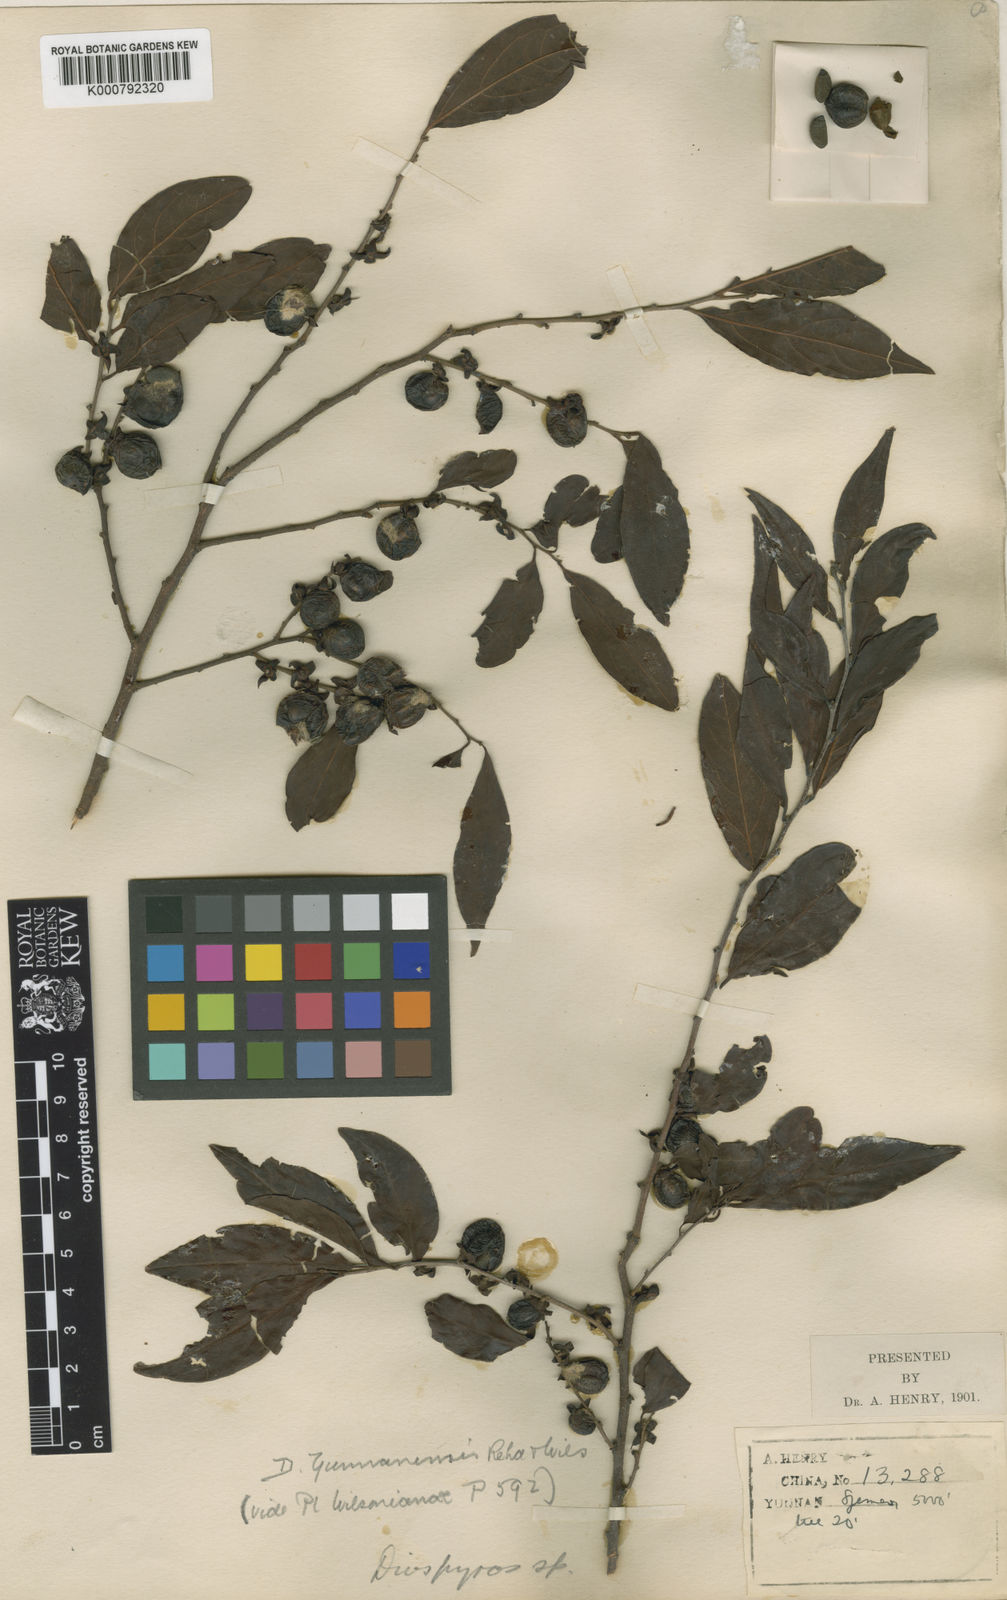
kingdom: Plantae
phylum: Tracheophyta
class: Magnoliopsida
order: Ericales
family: Ebenaceae
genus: Diospyros
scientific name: Diospyros yunnanensis
